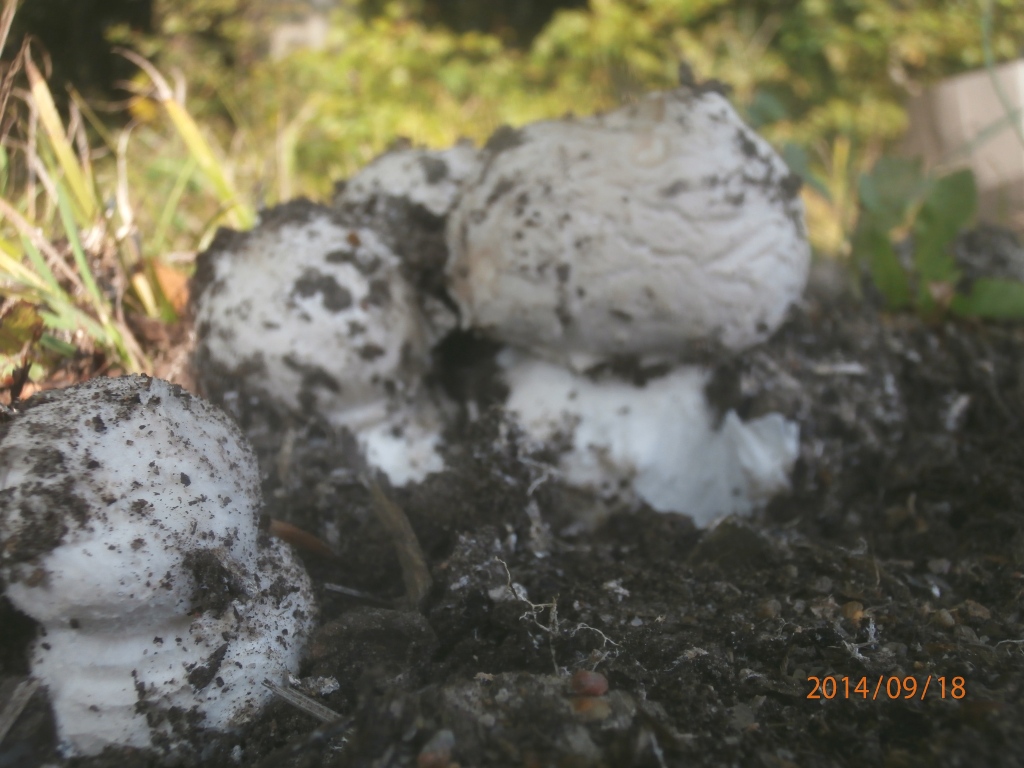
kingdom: Fungi
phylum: Basidiomycota
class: Agaricomycetes
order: Agaricales
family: Amanitaceae
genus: Amanita
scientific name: Amanita
